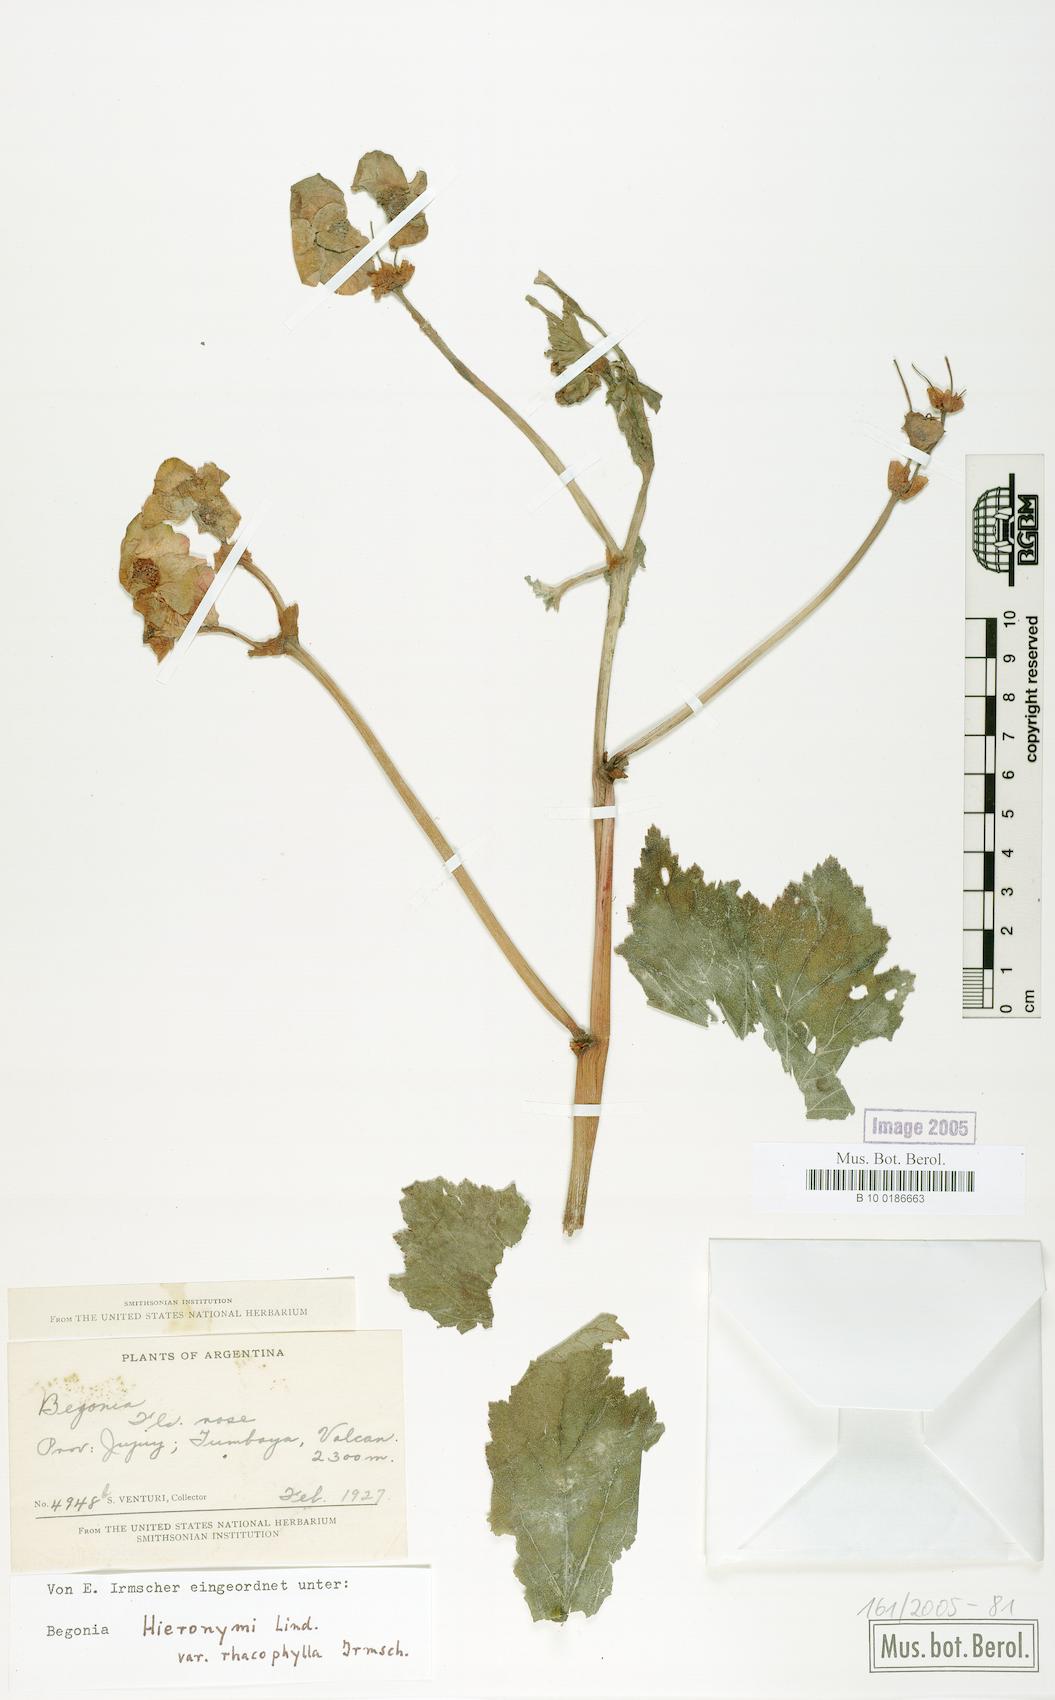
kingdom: Plantae
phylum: Tracheophyta
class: Magnoliopsida
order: Cucurbitales
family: Begoniaceae
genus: Begonia
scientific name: Begonia micranthera
